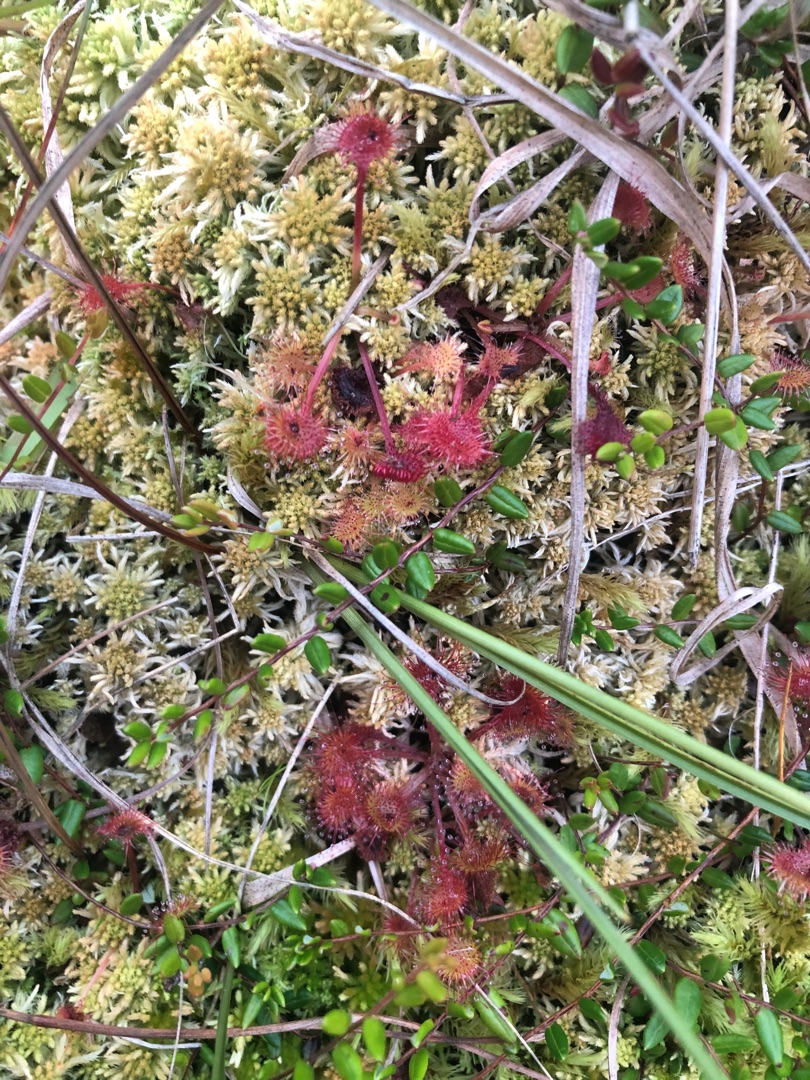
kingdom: Plantae
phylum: Tracheophyta
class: Magnoliopsida
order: Caryophyllales
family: Droseraceae
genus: Drosera
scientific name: Drosera rotundifolia
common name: Rundbladet soldug
